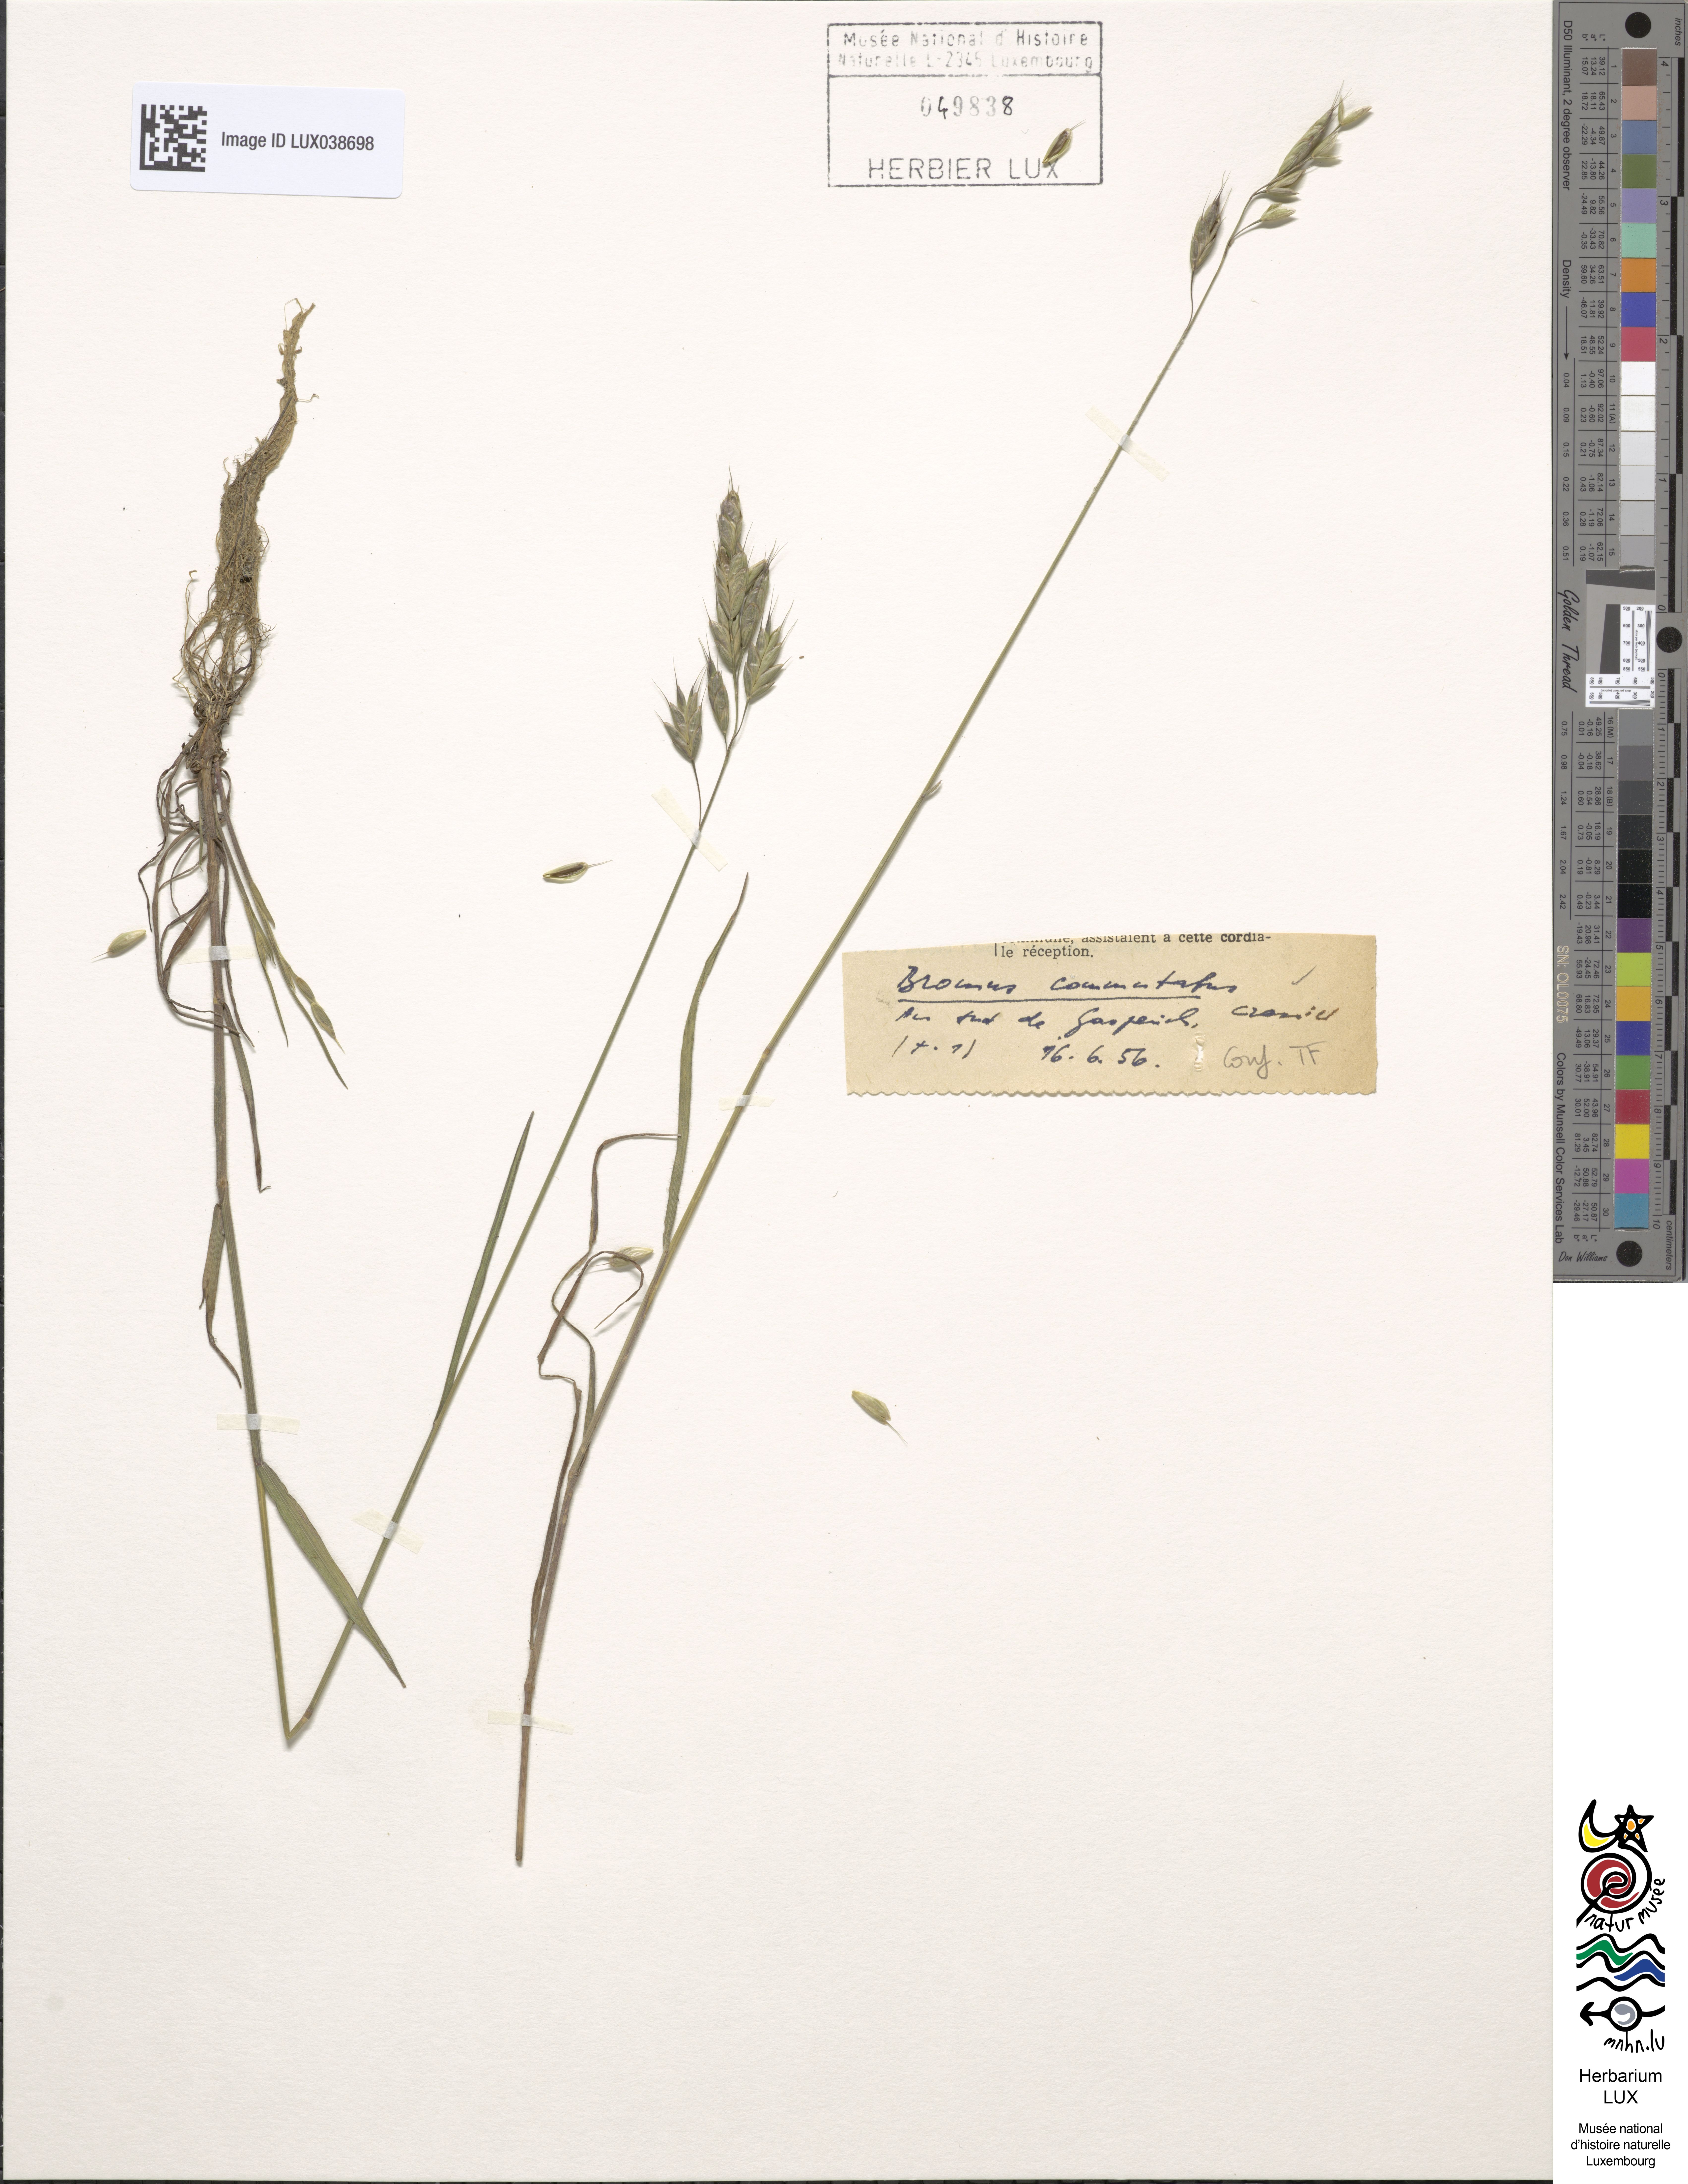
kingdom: Plantae
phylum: Tracheophyta
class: Liliopsida
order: Poales
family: Poaceae
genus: Bromus
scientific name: Bromus commutatus
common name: Meadow brome
